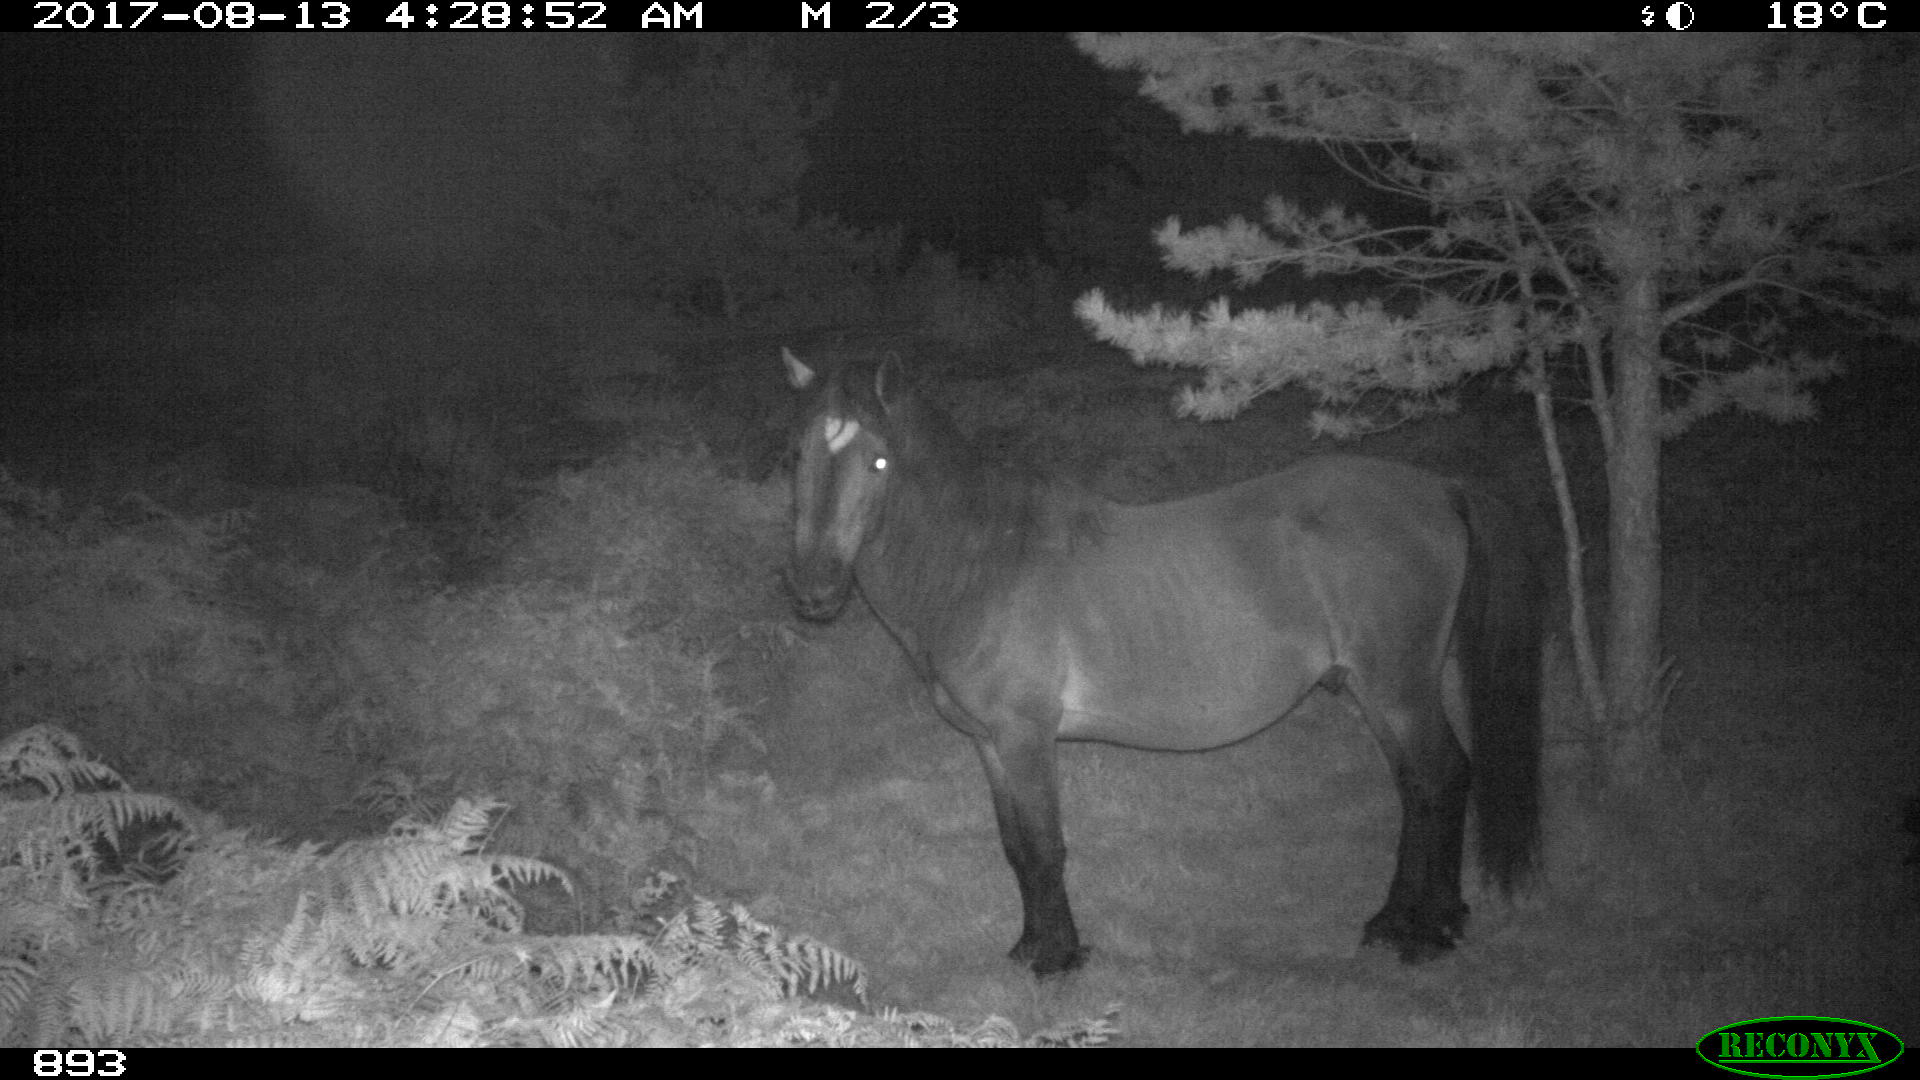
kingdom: Animalia
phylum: Chordata
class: Mammalia
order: Perissodactyla
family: Equidae
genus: Equus
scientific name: Equus caballus
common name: Horse
